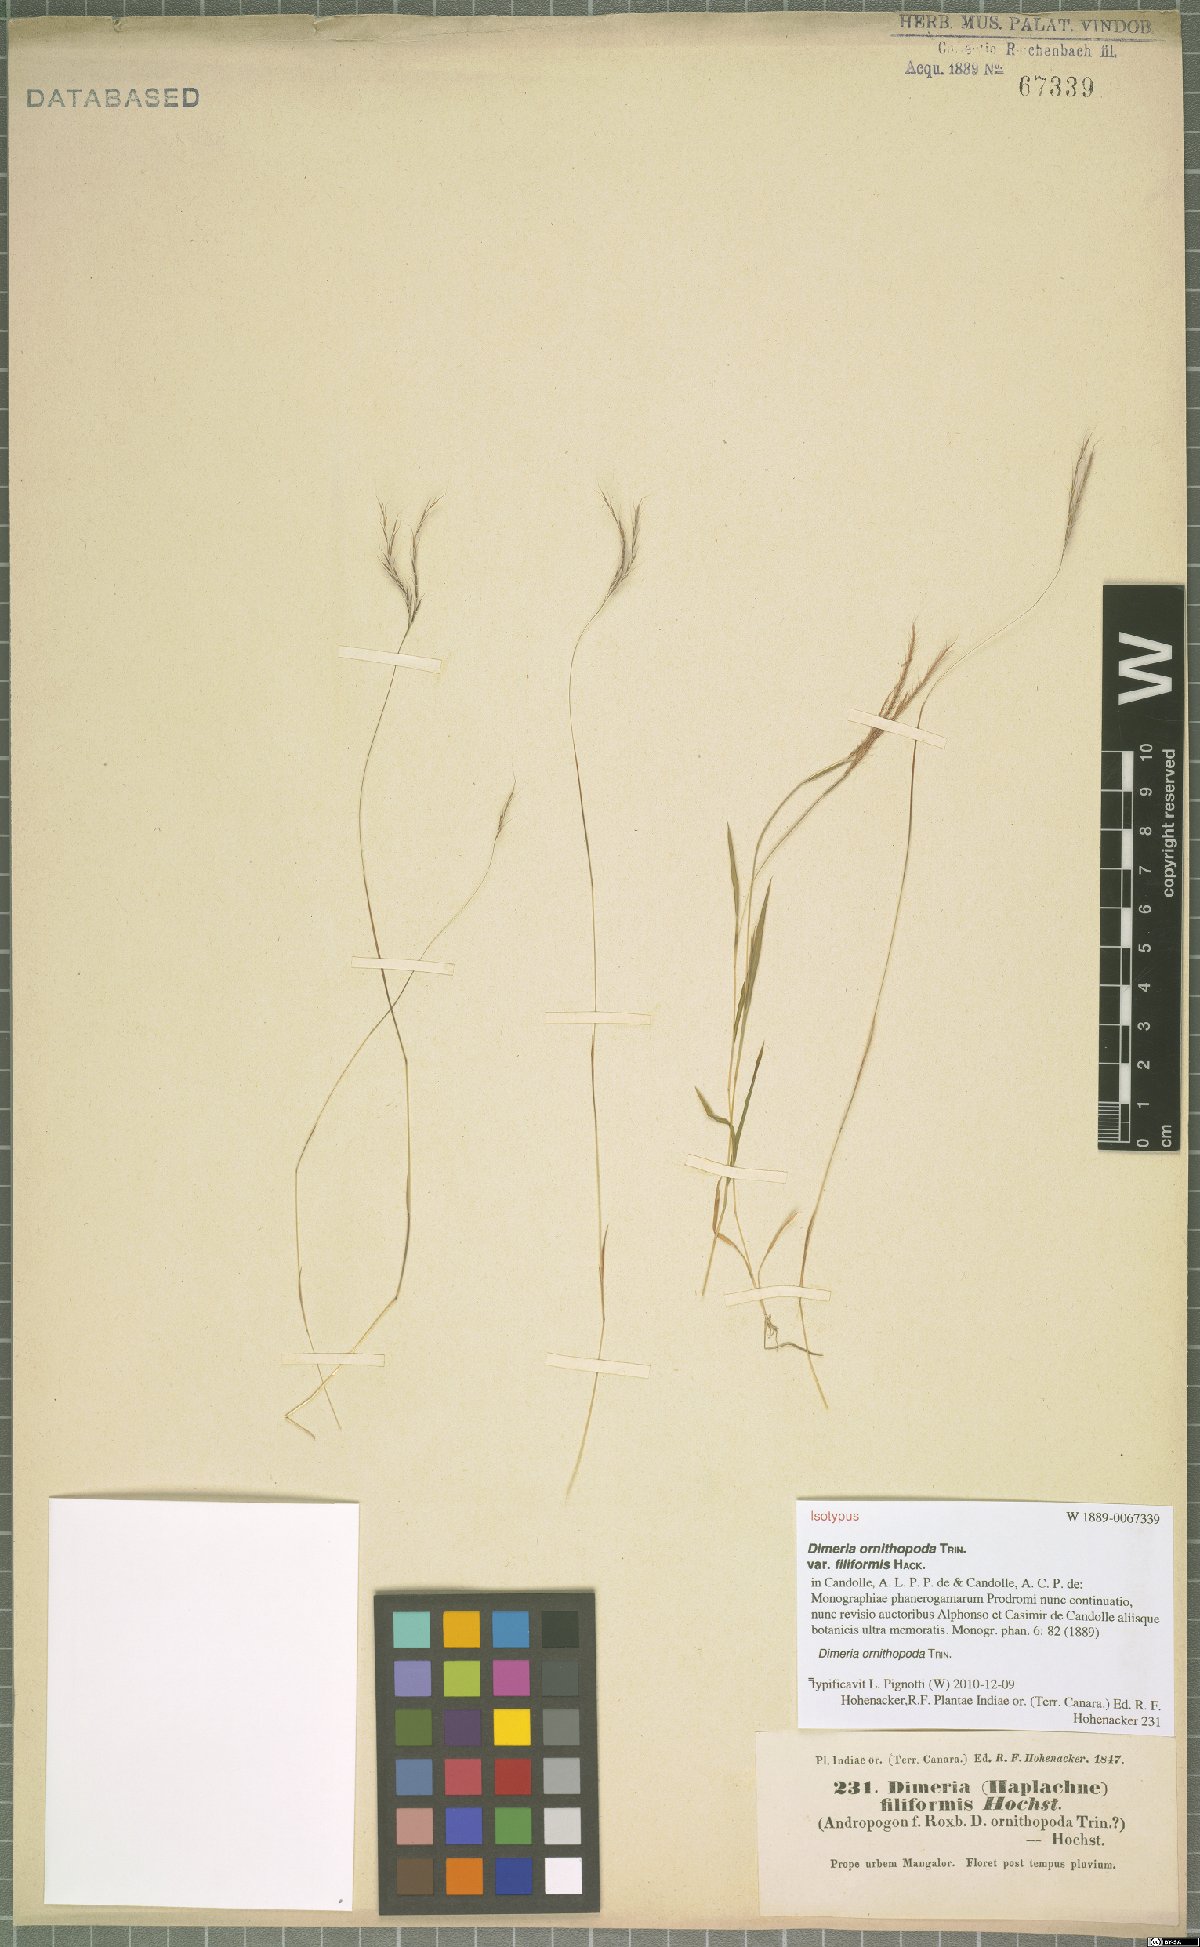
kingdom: Plantae
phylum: Tracheophyta
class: Liliopsida
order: Poales
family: Poaceae
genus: Dimeria
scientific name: Dimeria ornithopoda
